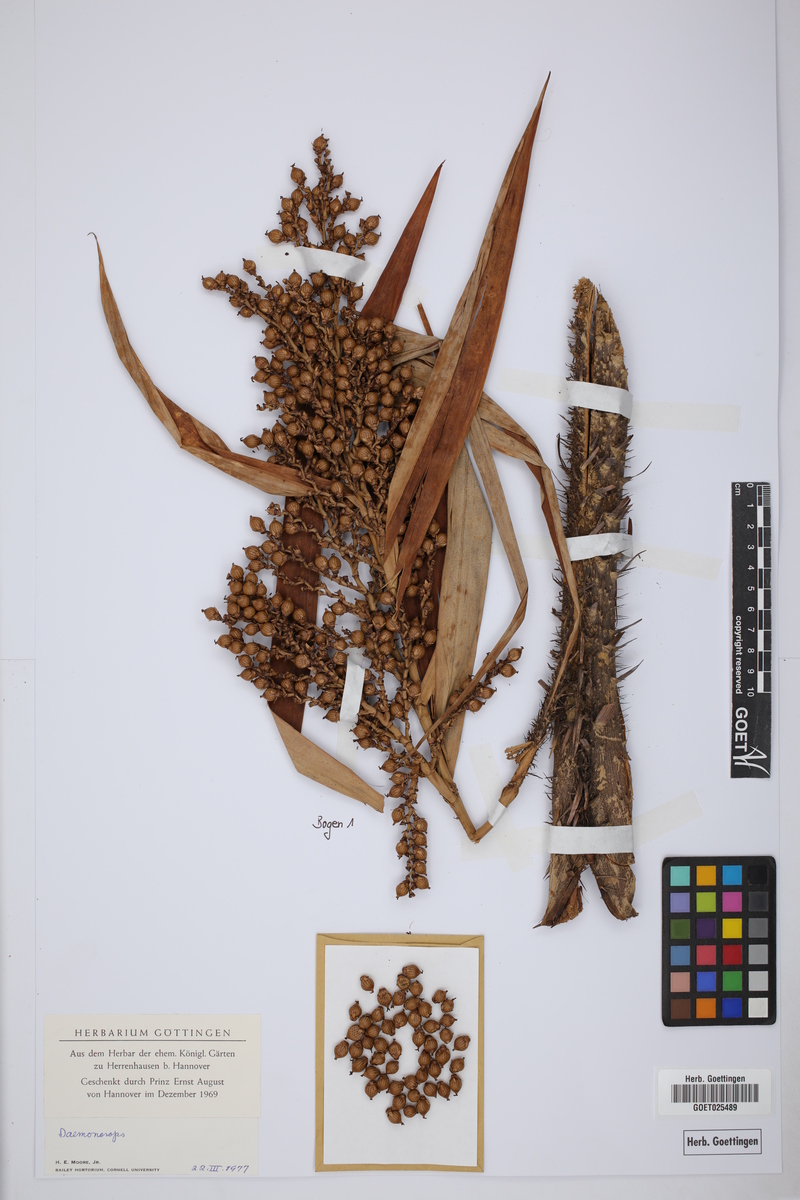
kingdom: Plantae
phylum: Tracheophyta
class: Liliopsida
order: Arecales
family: Arecaceae
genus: Daemonorops
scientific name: Daemonorops
